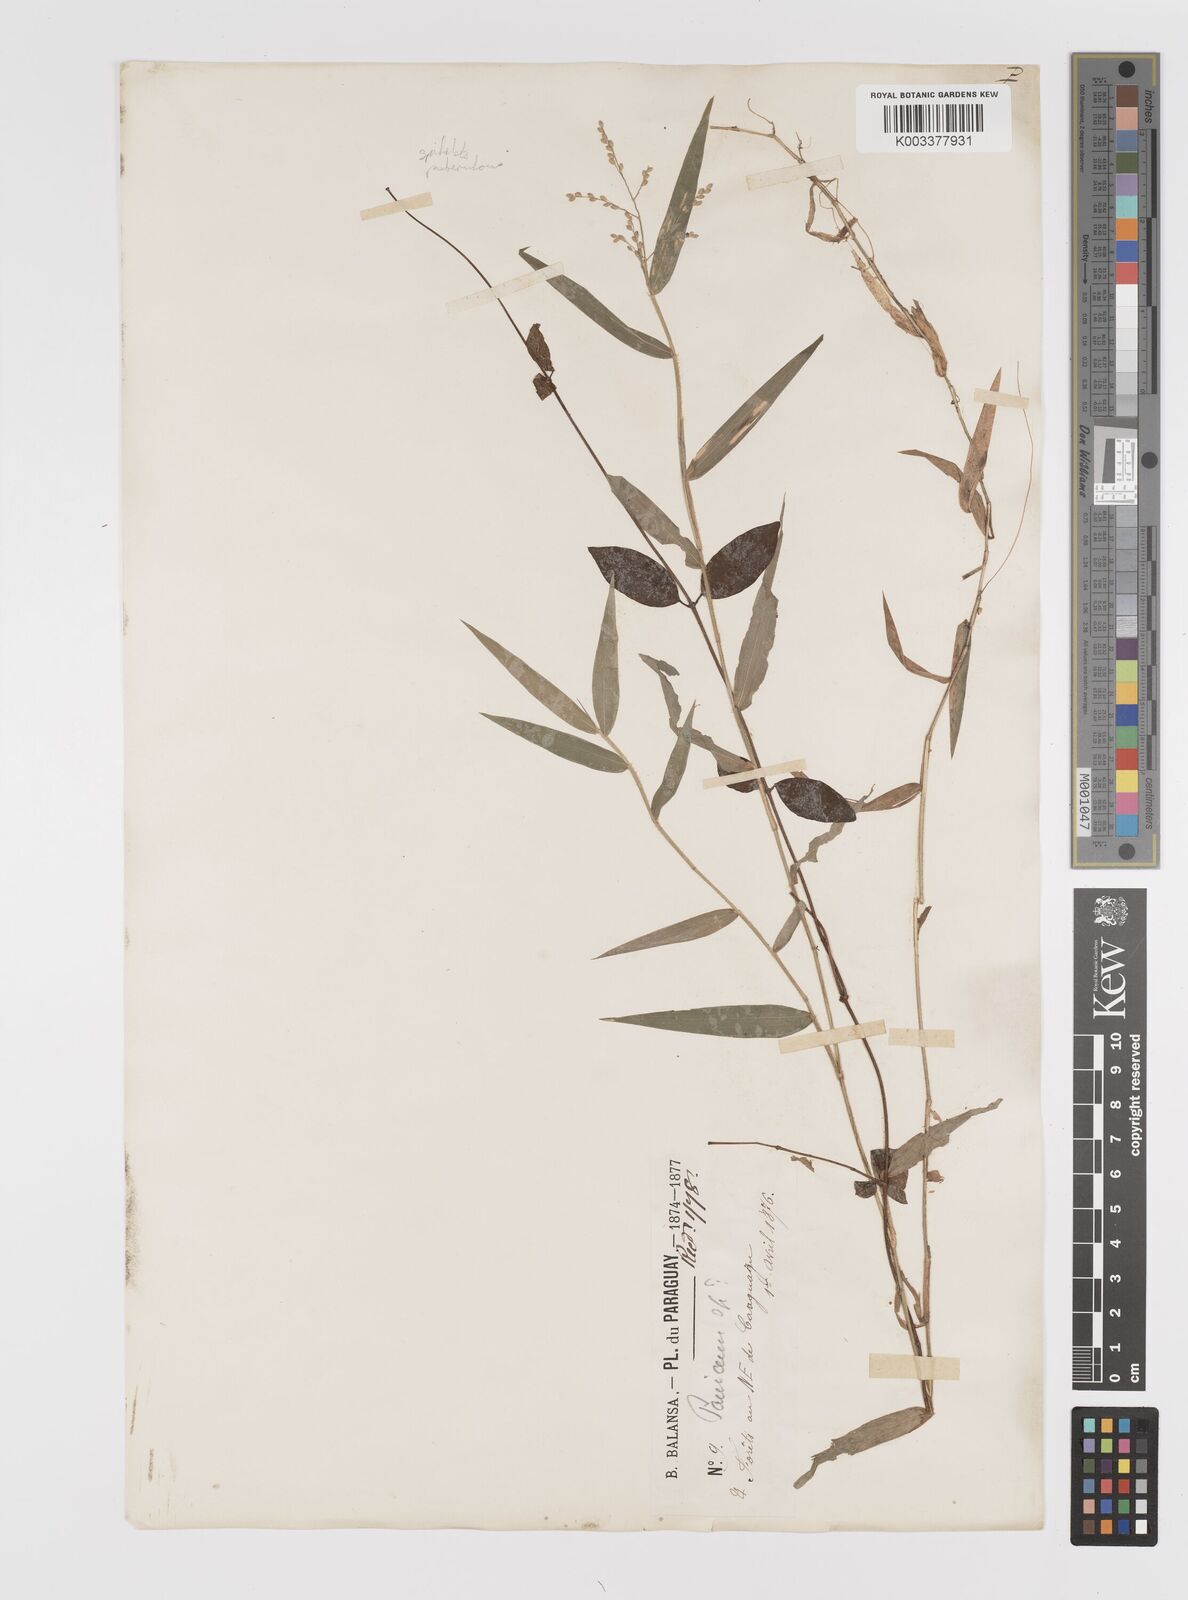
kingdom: Plantae
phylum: Tracheophyta
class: Liliopsida
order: Poales
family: Poaceae
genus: Parodiophyllochloa
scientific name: Parodiophyllochloa pantricha
